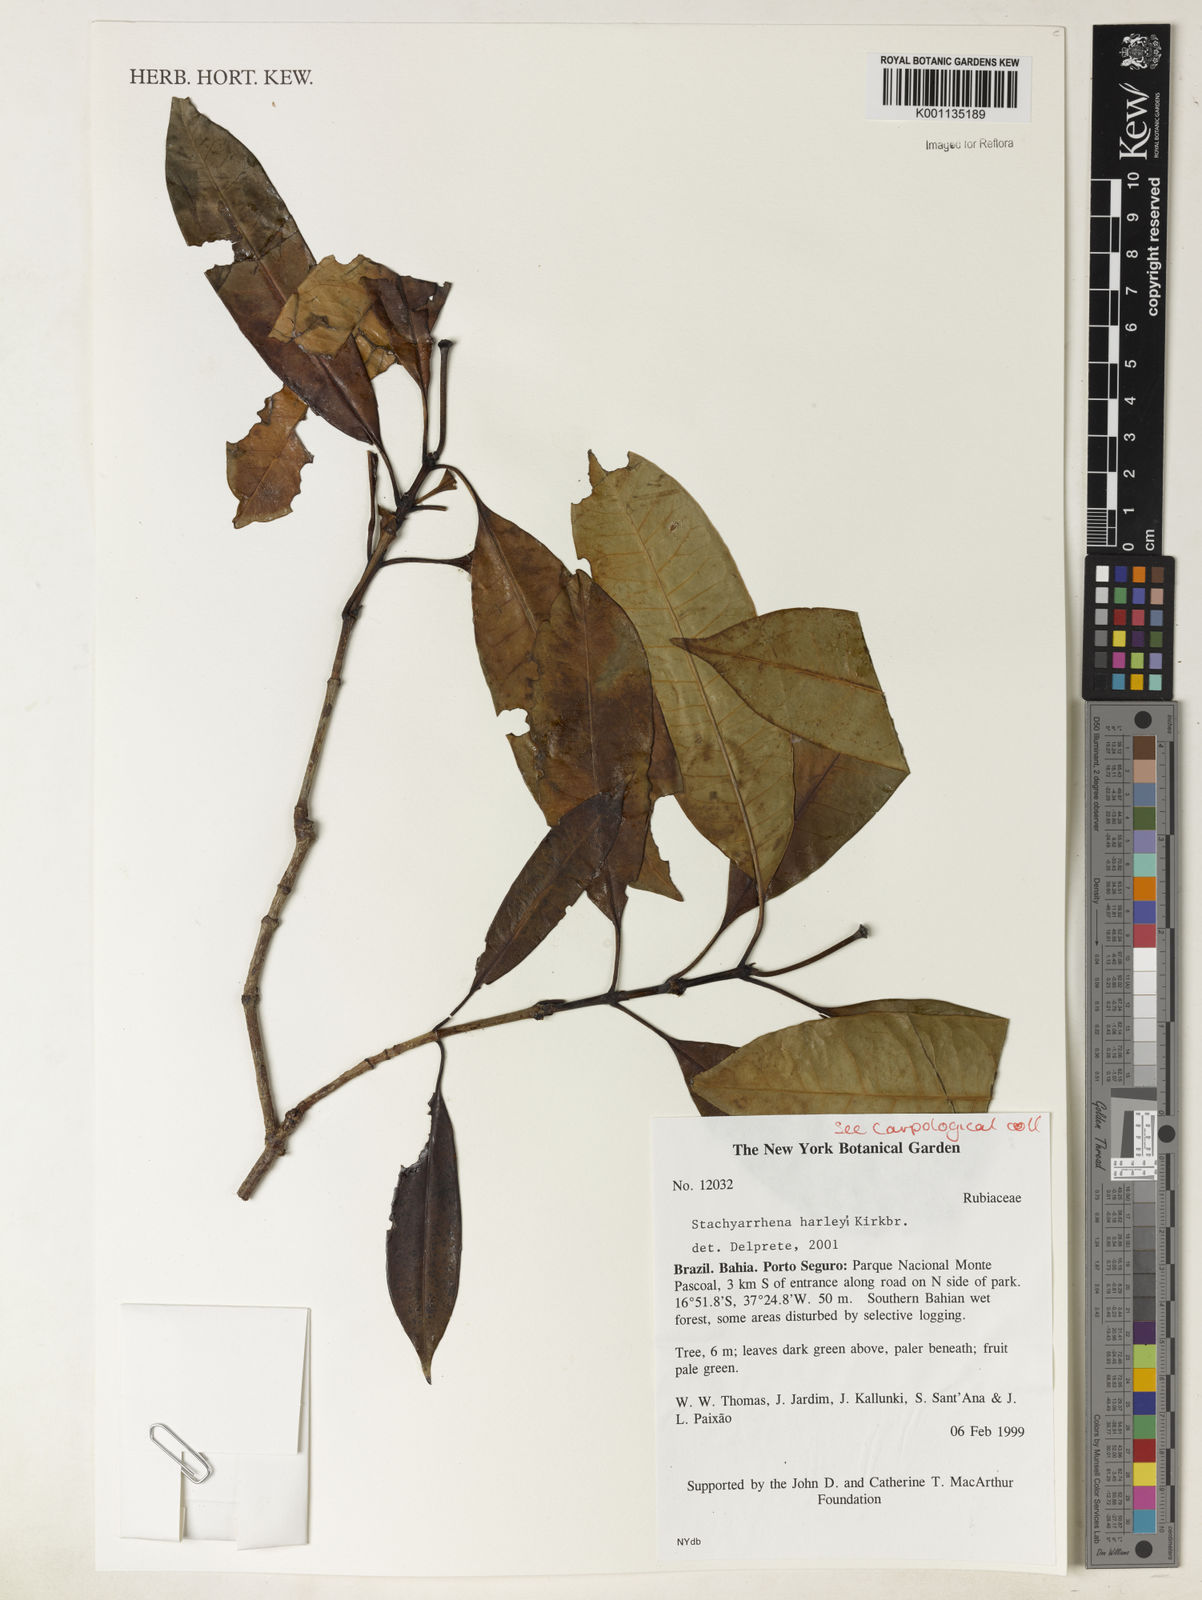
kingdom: Plantae
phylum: Tracheophyta
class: Magnoliopsida
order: Gentianales
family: Rubiaceae
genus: Stachyarrhena
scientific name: Stachyarrhena harleyi
